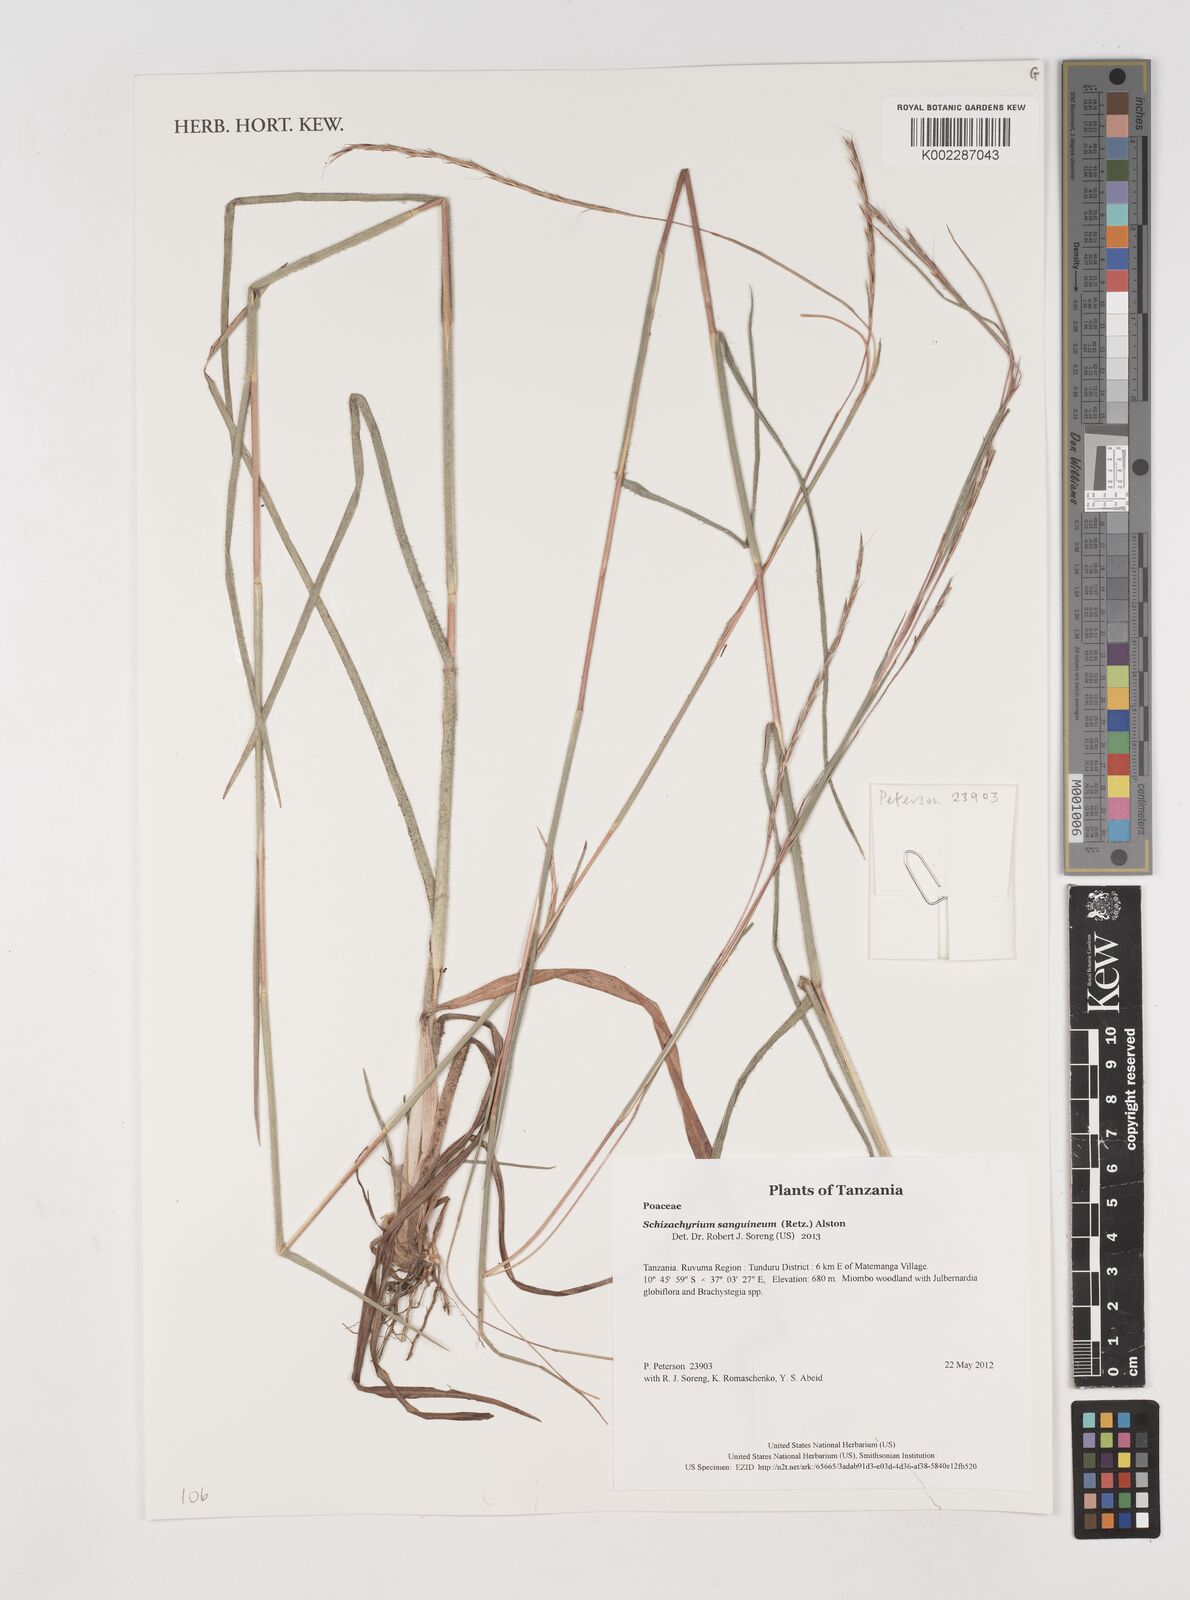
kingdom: Plantae
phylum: Tracheophyta
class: Liliopsida
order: Poales
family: Poaceae
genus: Schizachyrium
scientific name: Schizachyrium sanguineum
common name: Crimson bluestem
